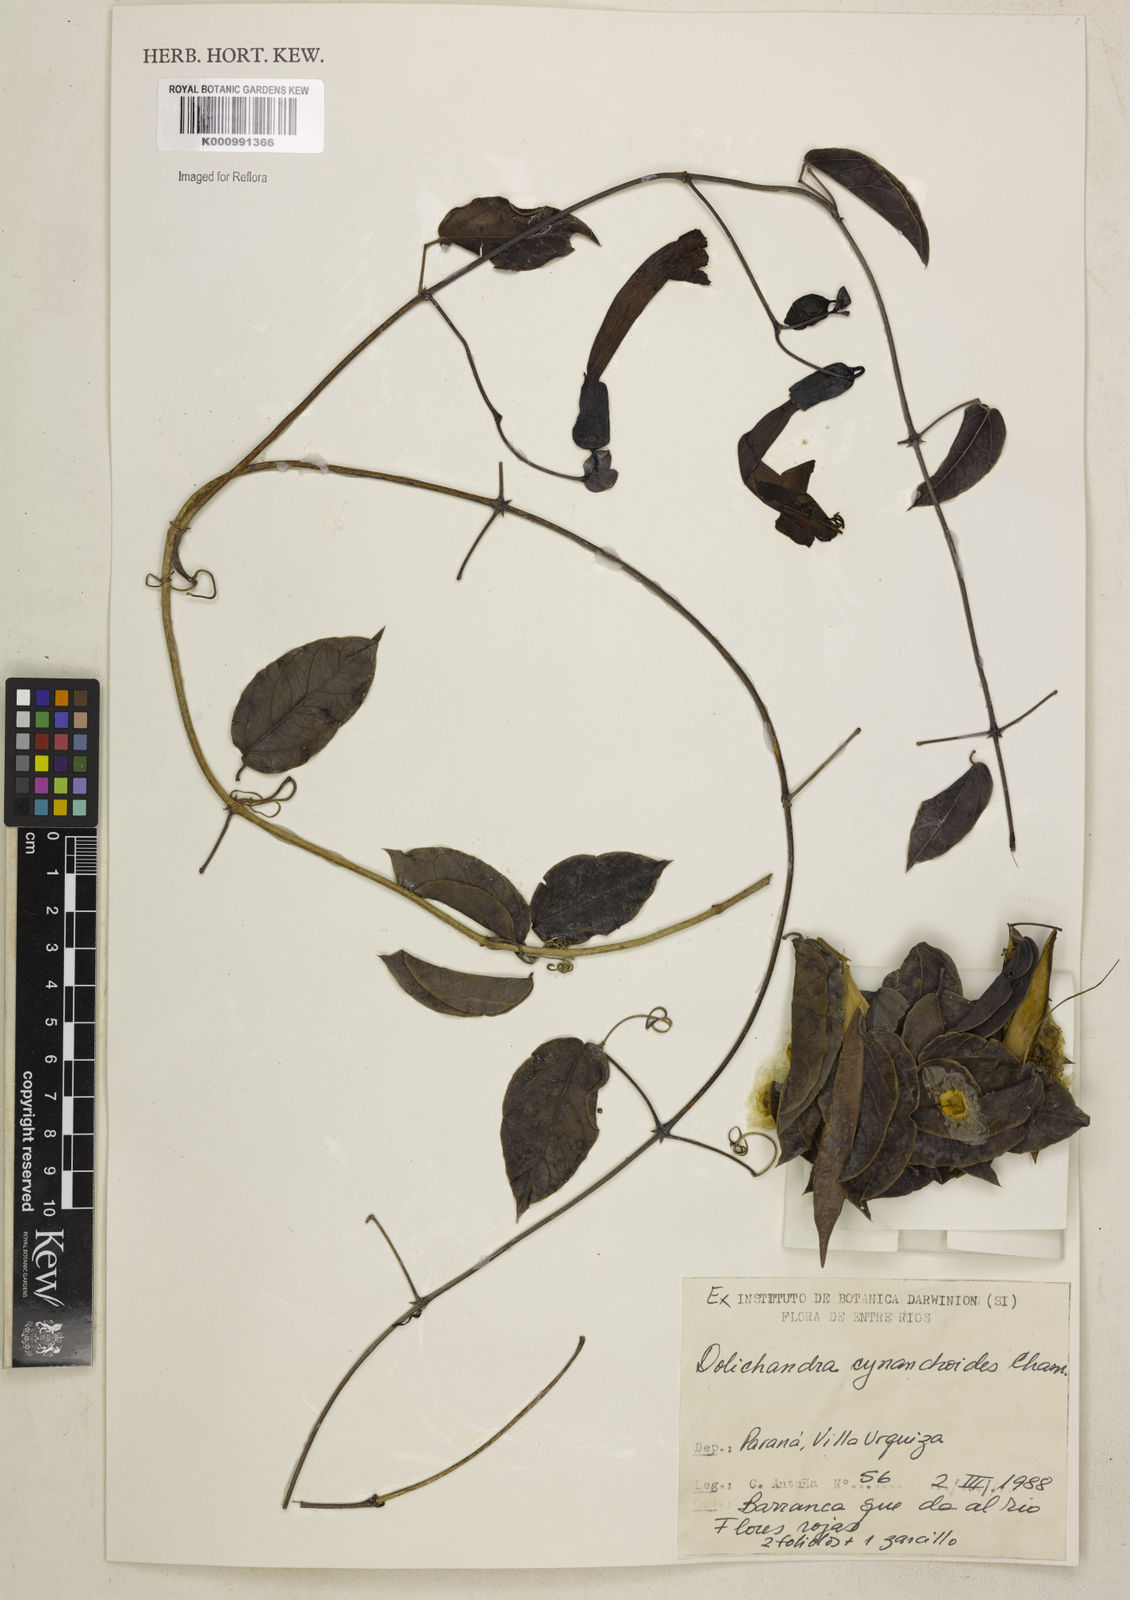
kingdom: Plantae
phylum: Tracheophyta
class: Magnoliopsida
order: Lamiales
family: Bignoniaceae
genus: Dolichandra
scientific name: Dolichandra cynanchoides
